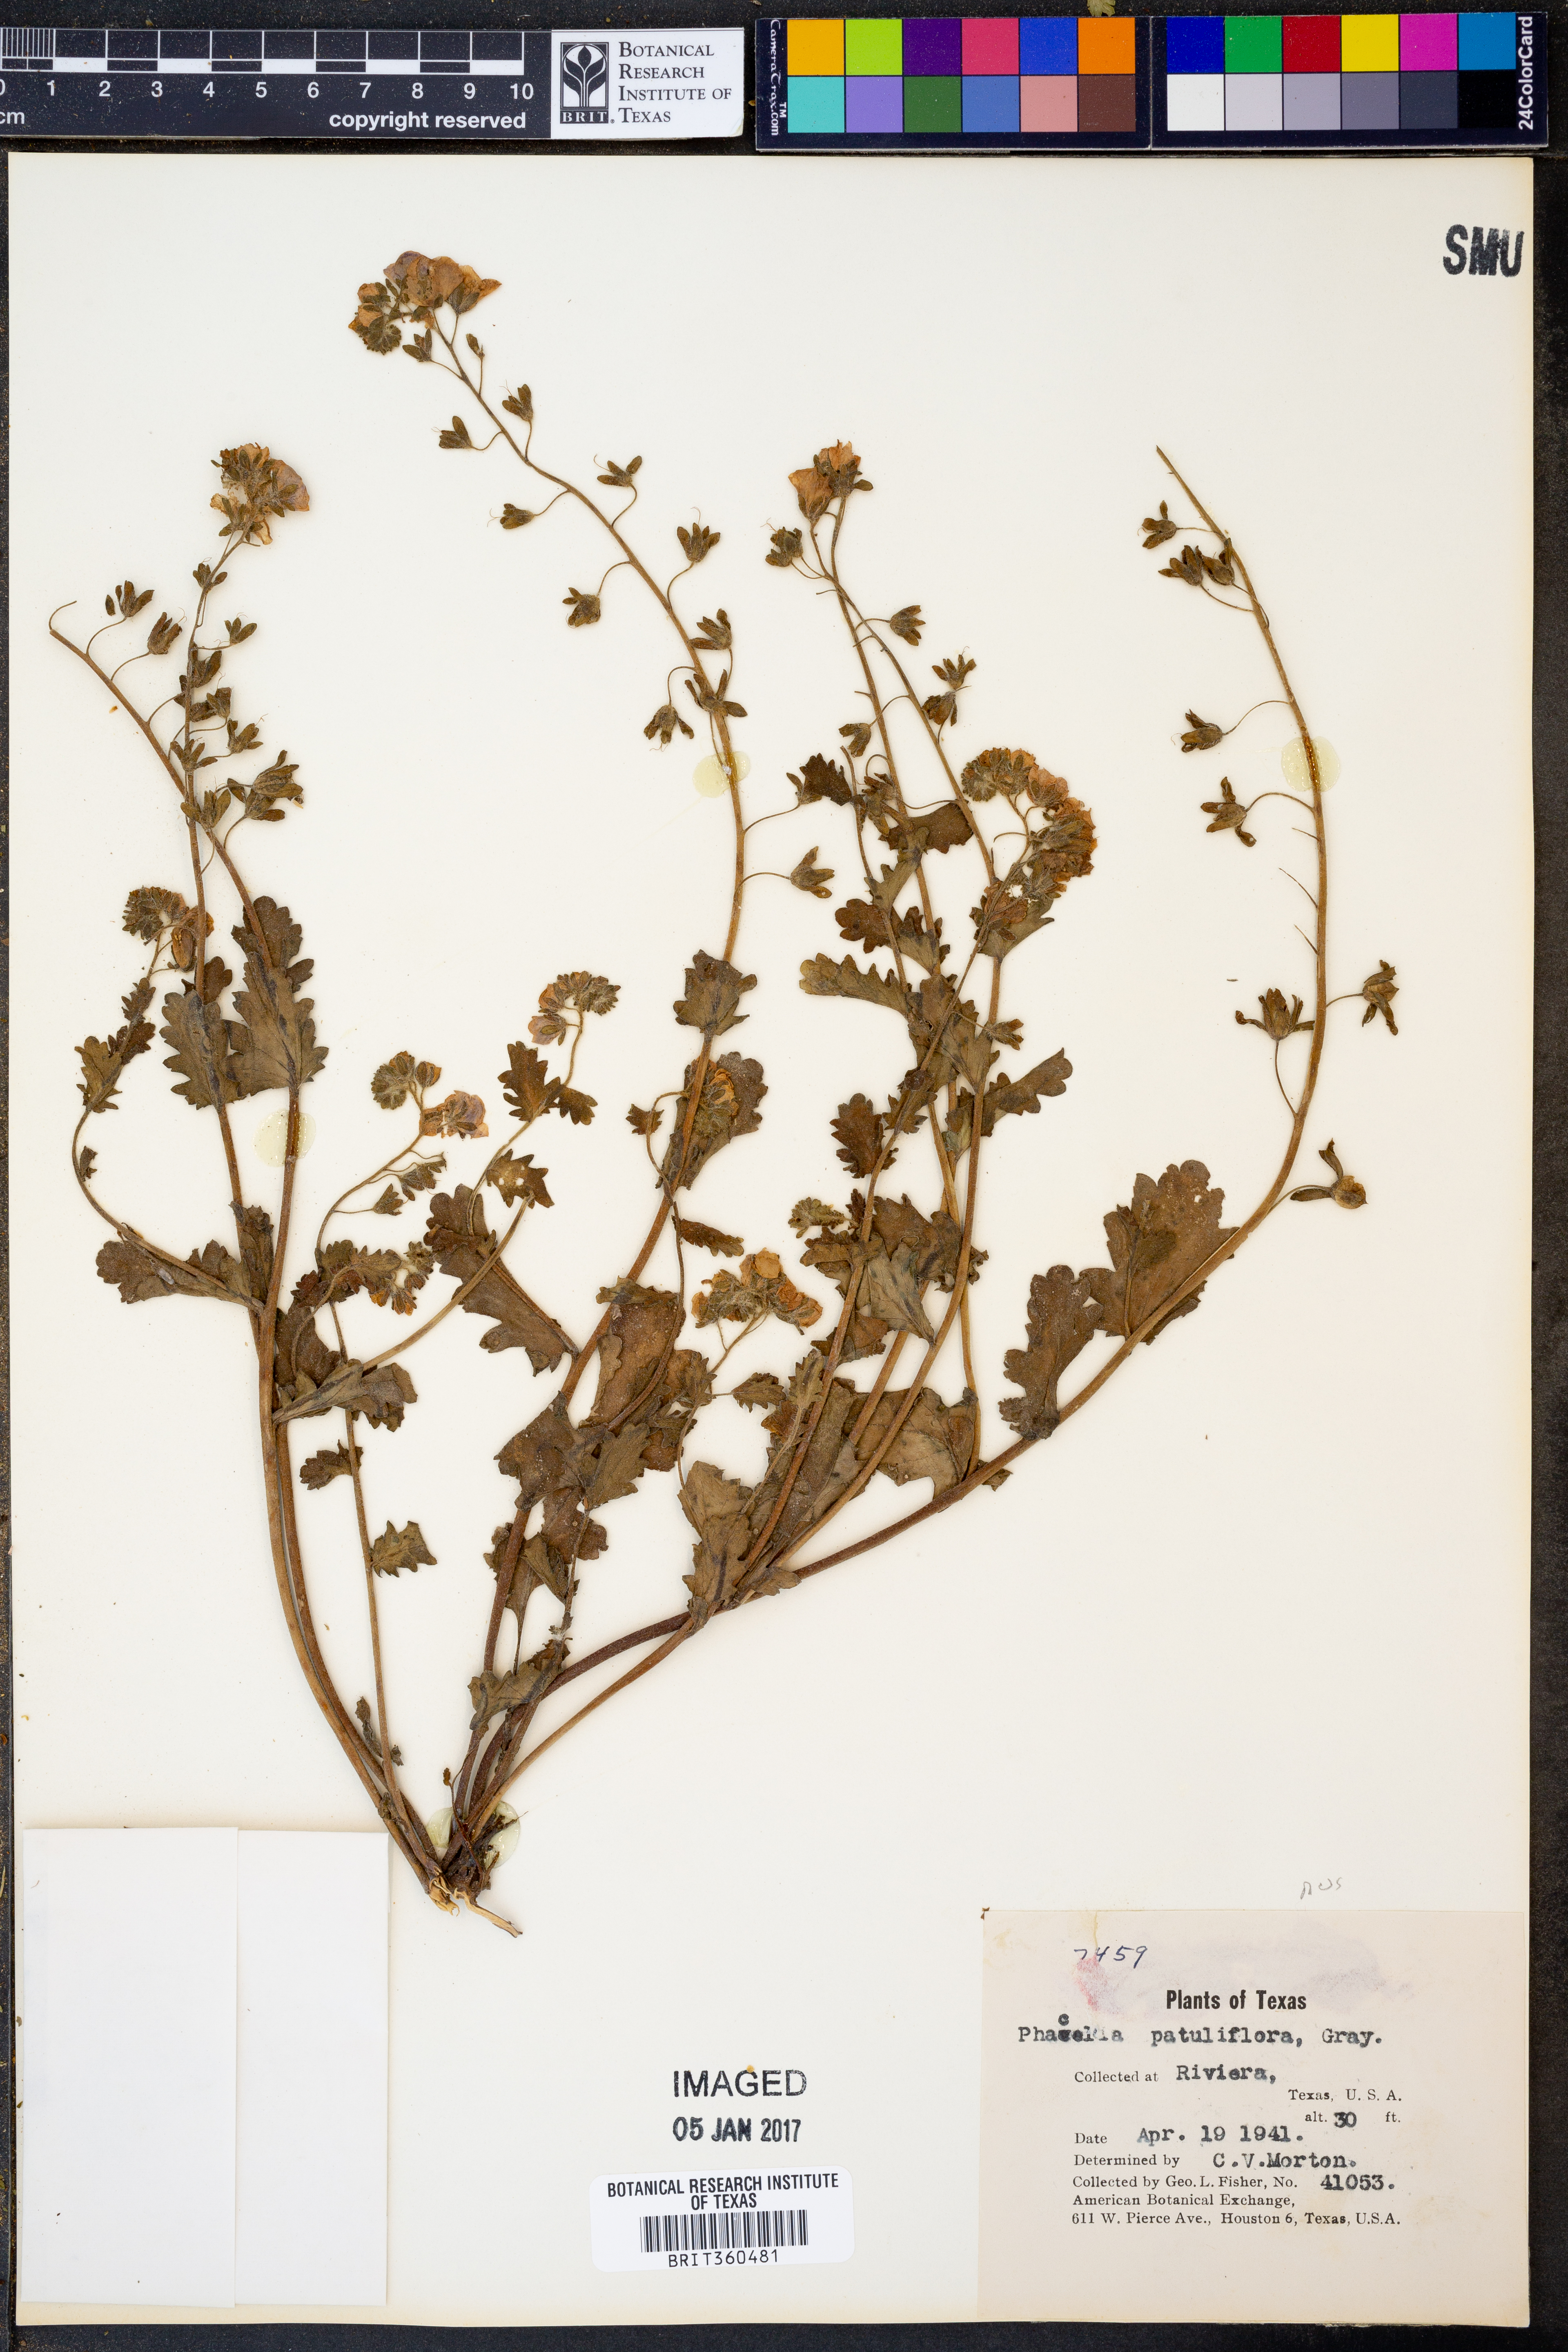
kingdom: Plantae
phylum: Tracheophyta
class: Magnoliopsida
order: Boraginales
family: Hydrophyllaceae
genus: Phacelia
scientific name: Phacelia patuliflora
